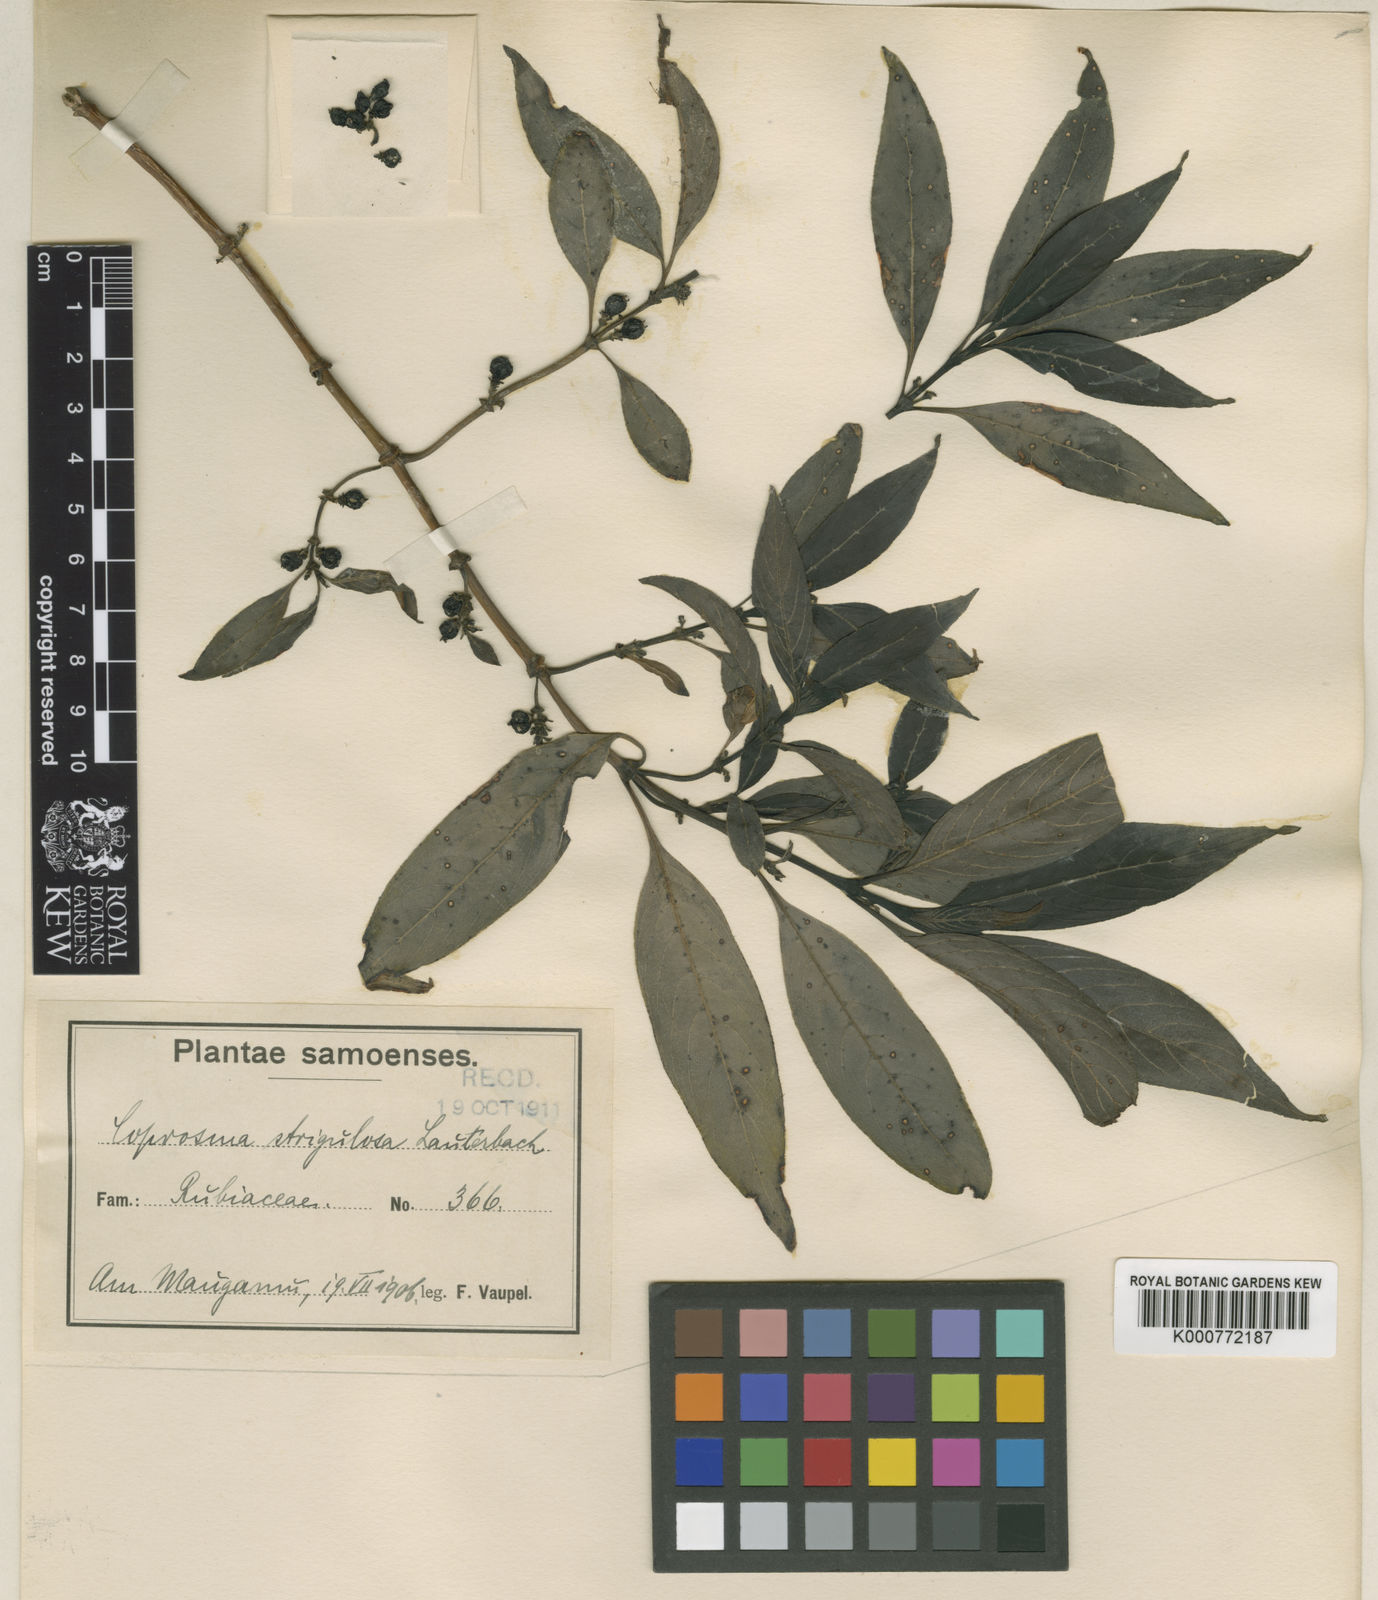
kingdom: Plantae
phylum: Tracheophyta
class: Magnoliopsida
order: Gentianales
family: Rubiaceae
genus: Coprosma
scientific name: Coprosma strigulosa
